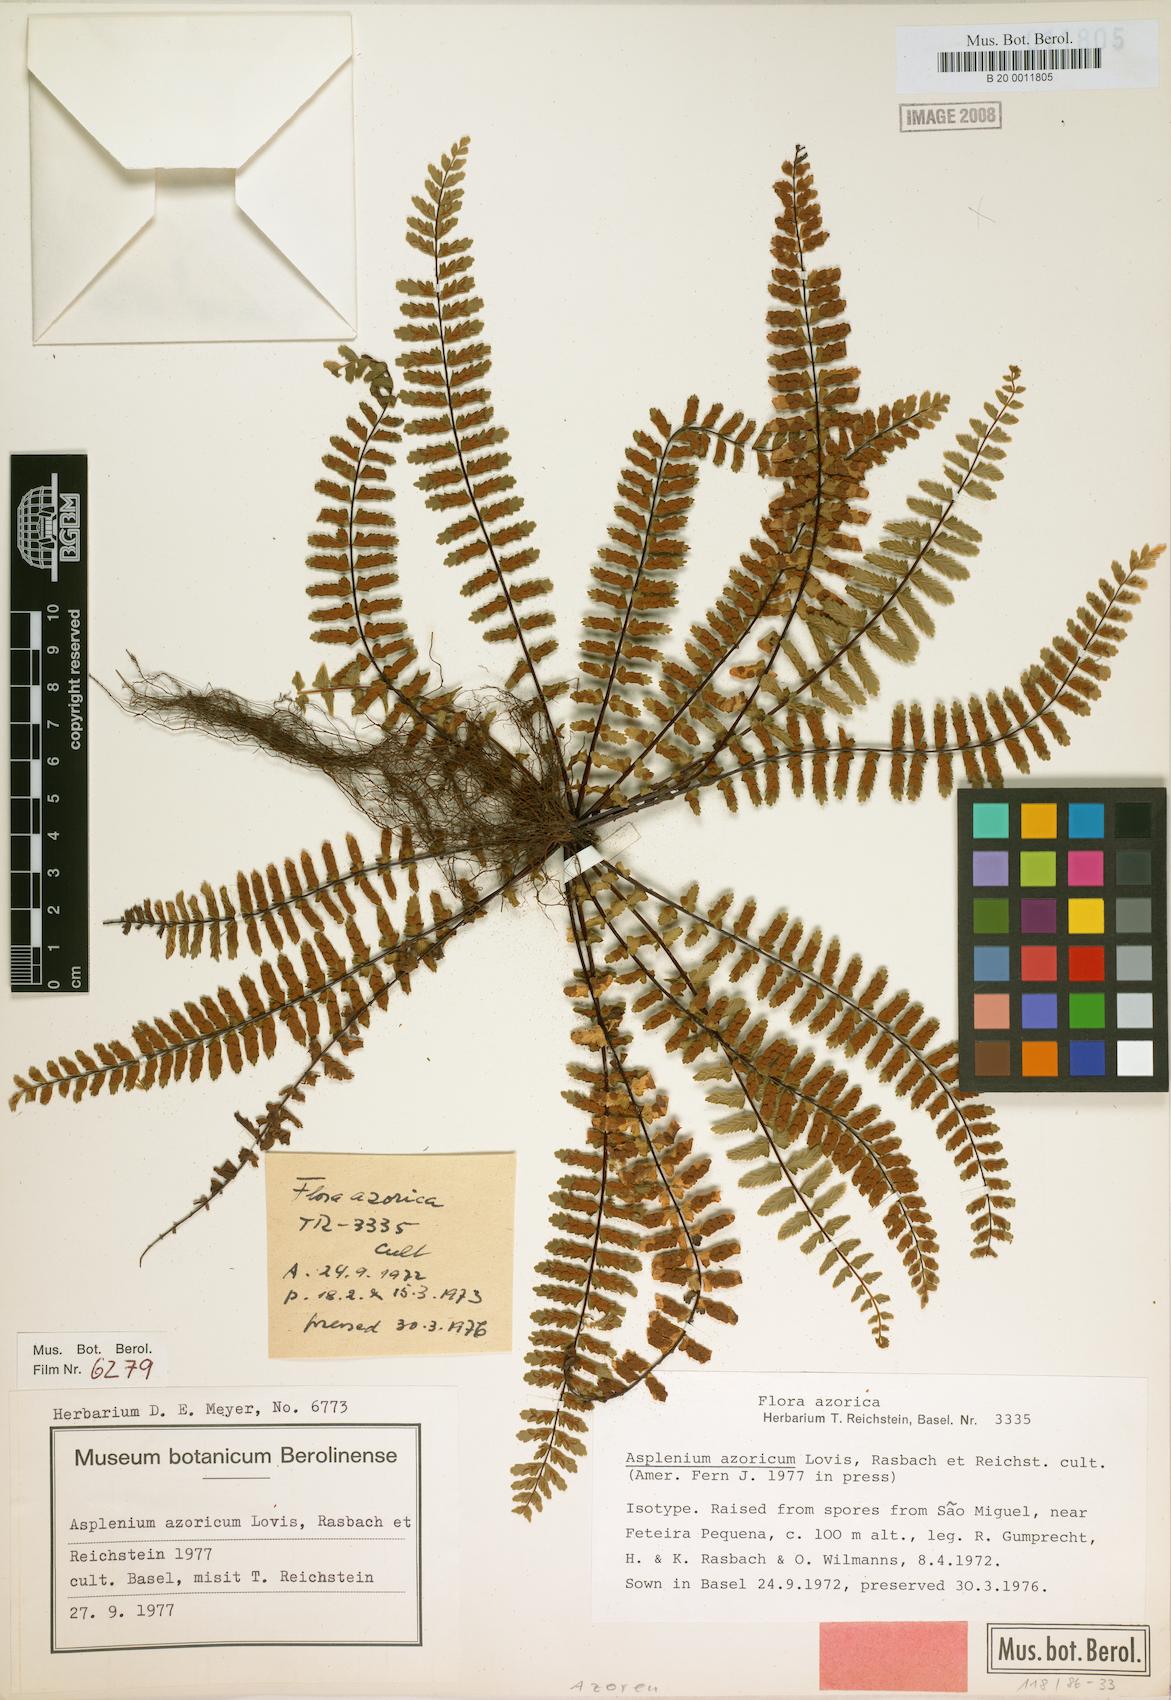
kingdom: Plantae
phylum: Tracheophyta
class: Polypodiopsida
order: Polypodiales
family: Aspleniaceae
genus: Asplenium
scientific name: Asplenium azoricum
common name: Azorean spleenwort
